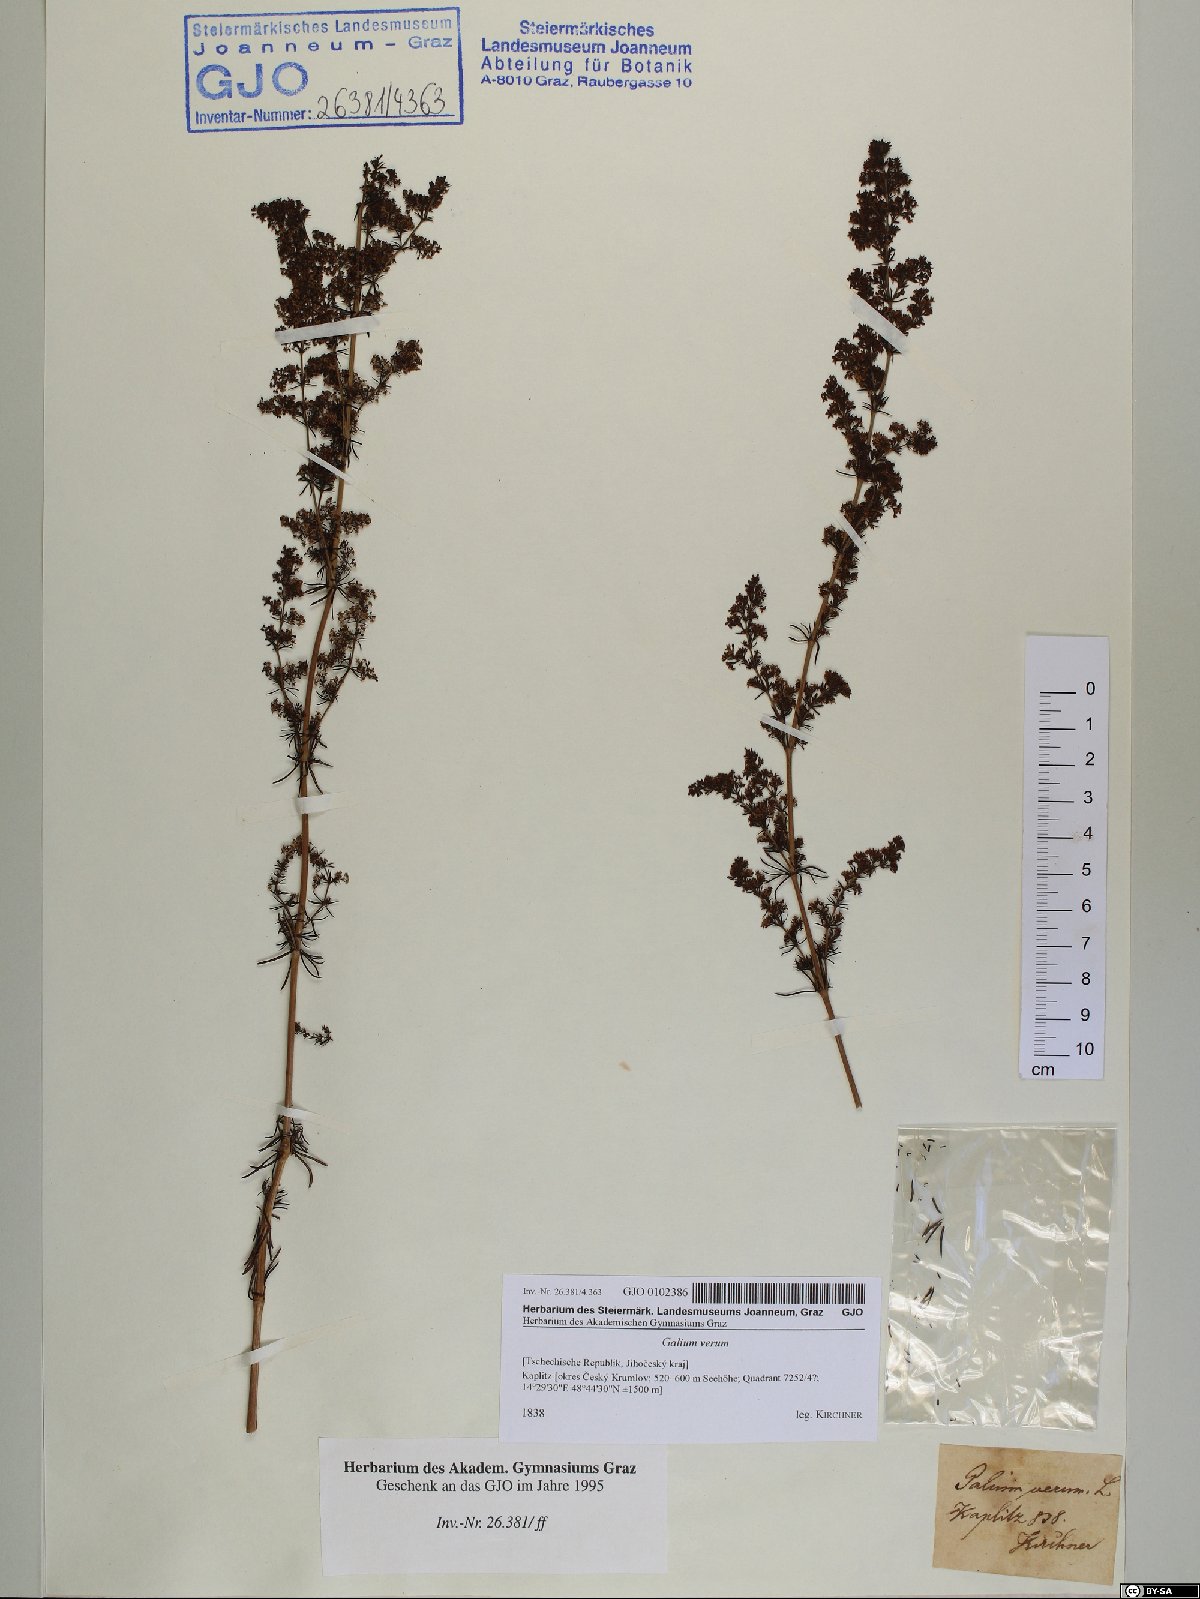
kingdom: Plantae
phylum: Tracheophyta
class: Magnoliopsida
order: Gentianales
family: Rubiaceae
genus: Galium
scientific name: Galium verum
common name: Lady's bedstraw
